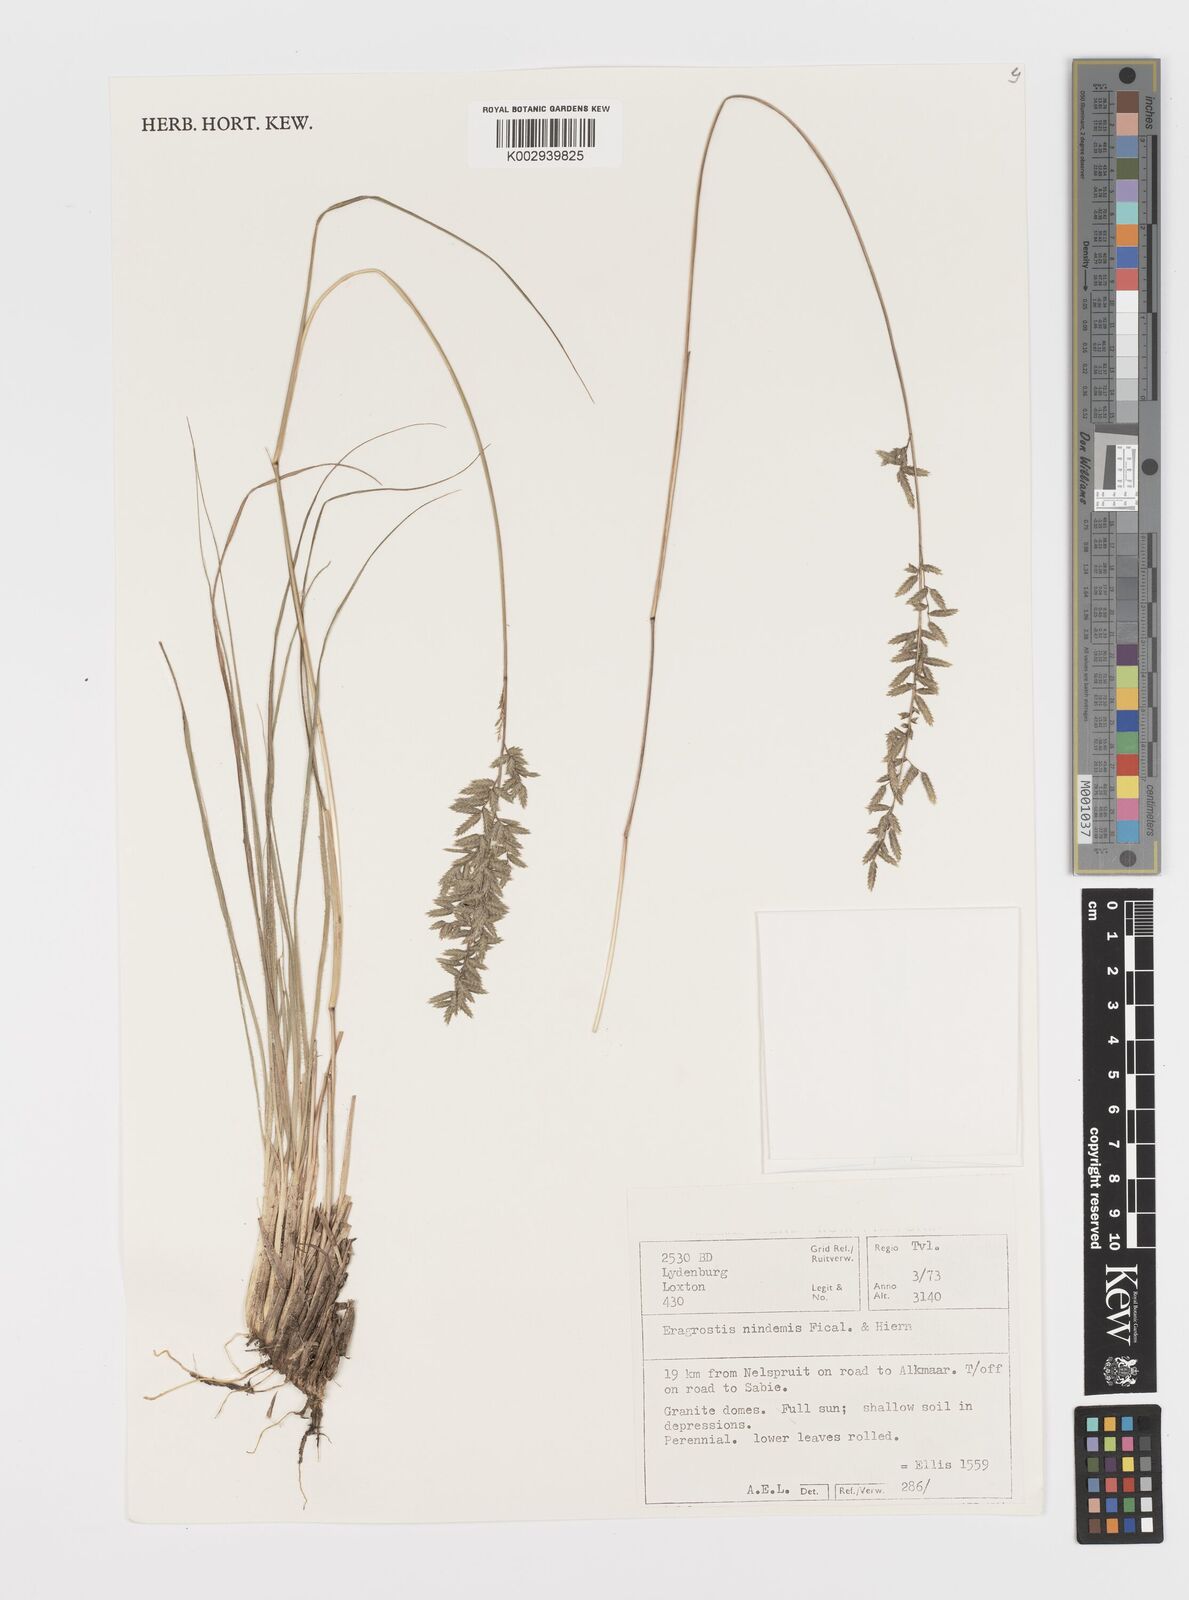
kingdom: Plantae
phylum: Tracheophyta
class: Liliopsida
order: Poales
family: Poaceae
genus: Eragrostis
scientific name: Eragrostis nindensis
